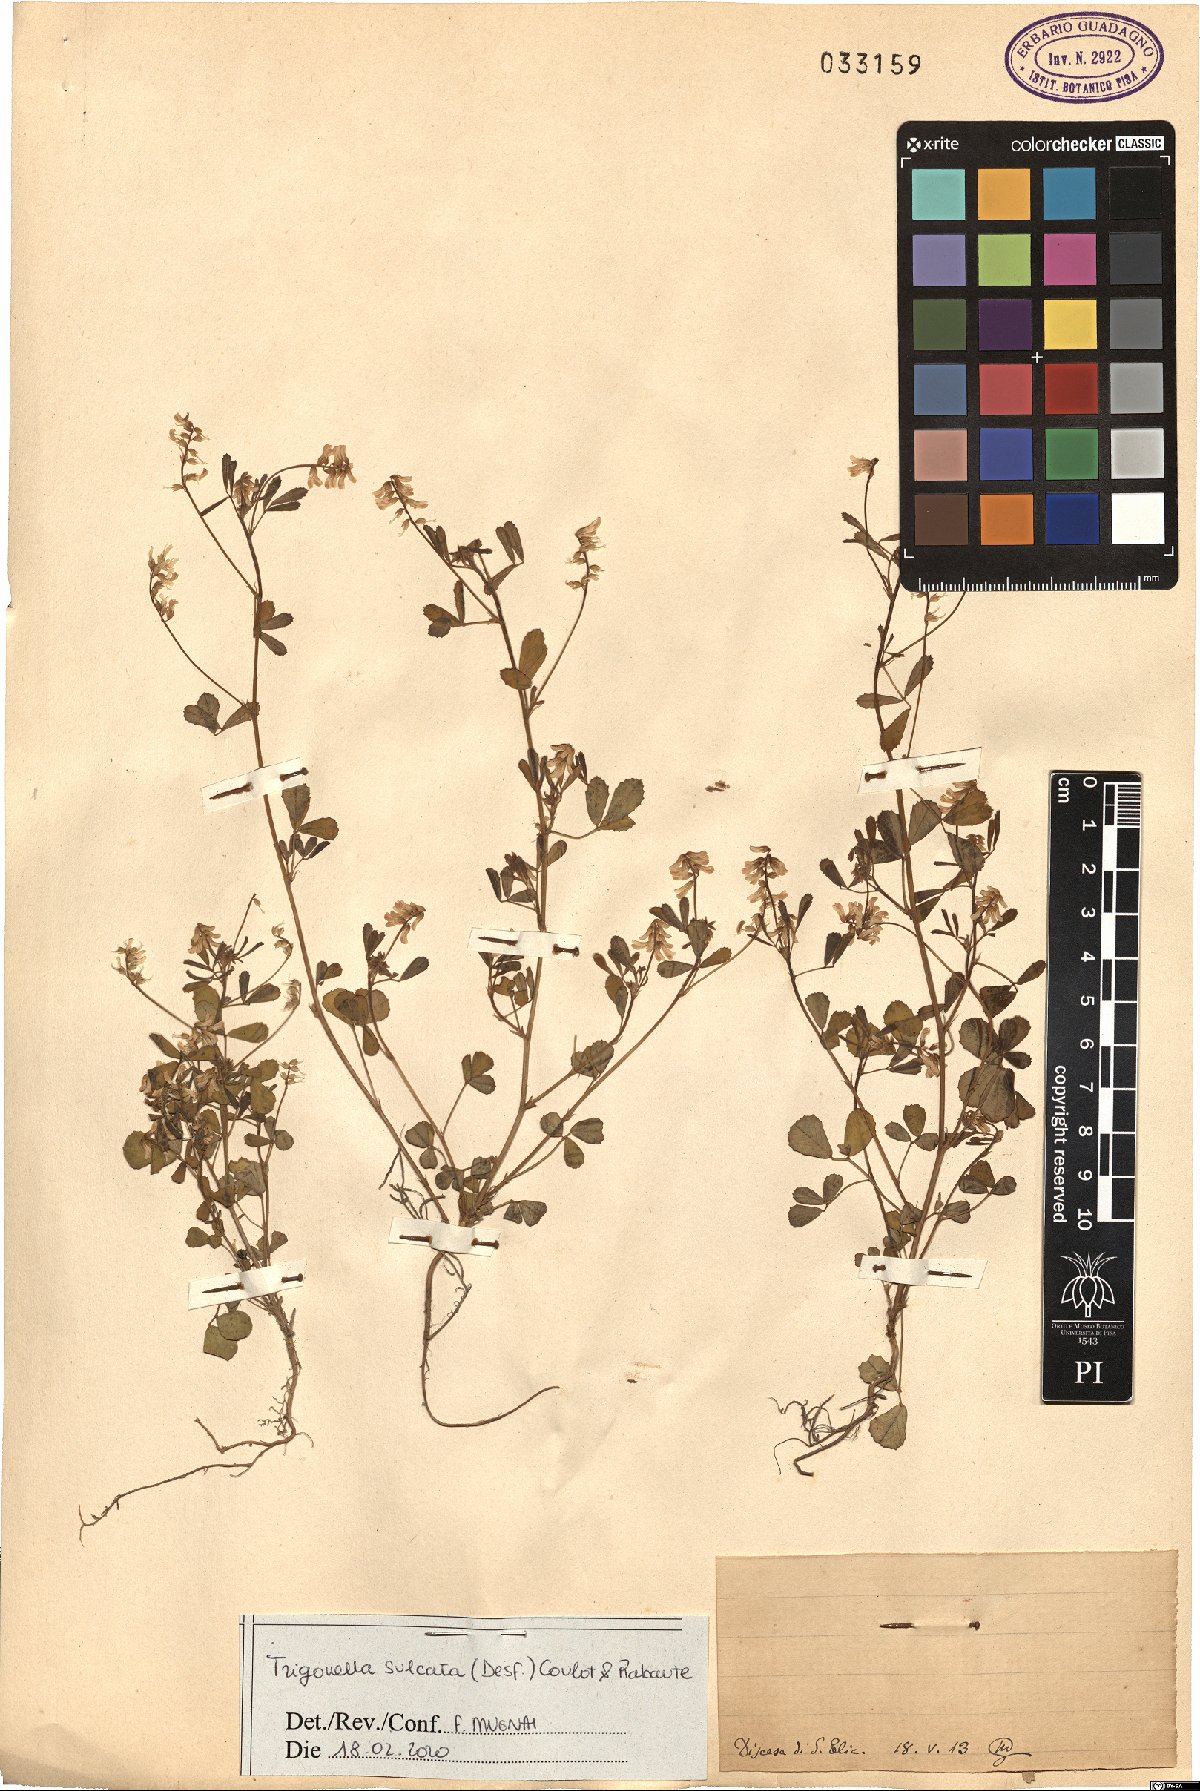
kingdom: Plantae
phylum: Tracheophyta
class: Magnoliopsida
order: Fabales
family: Fabaceae
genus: Melilotus
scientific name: Melilotus sulcatus
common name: Furrowed melilot
